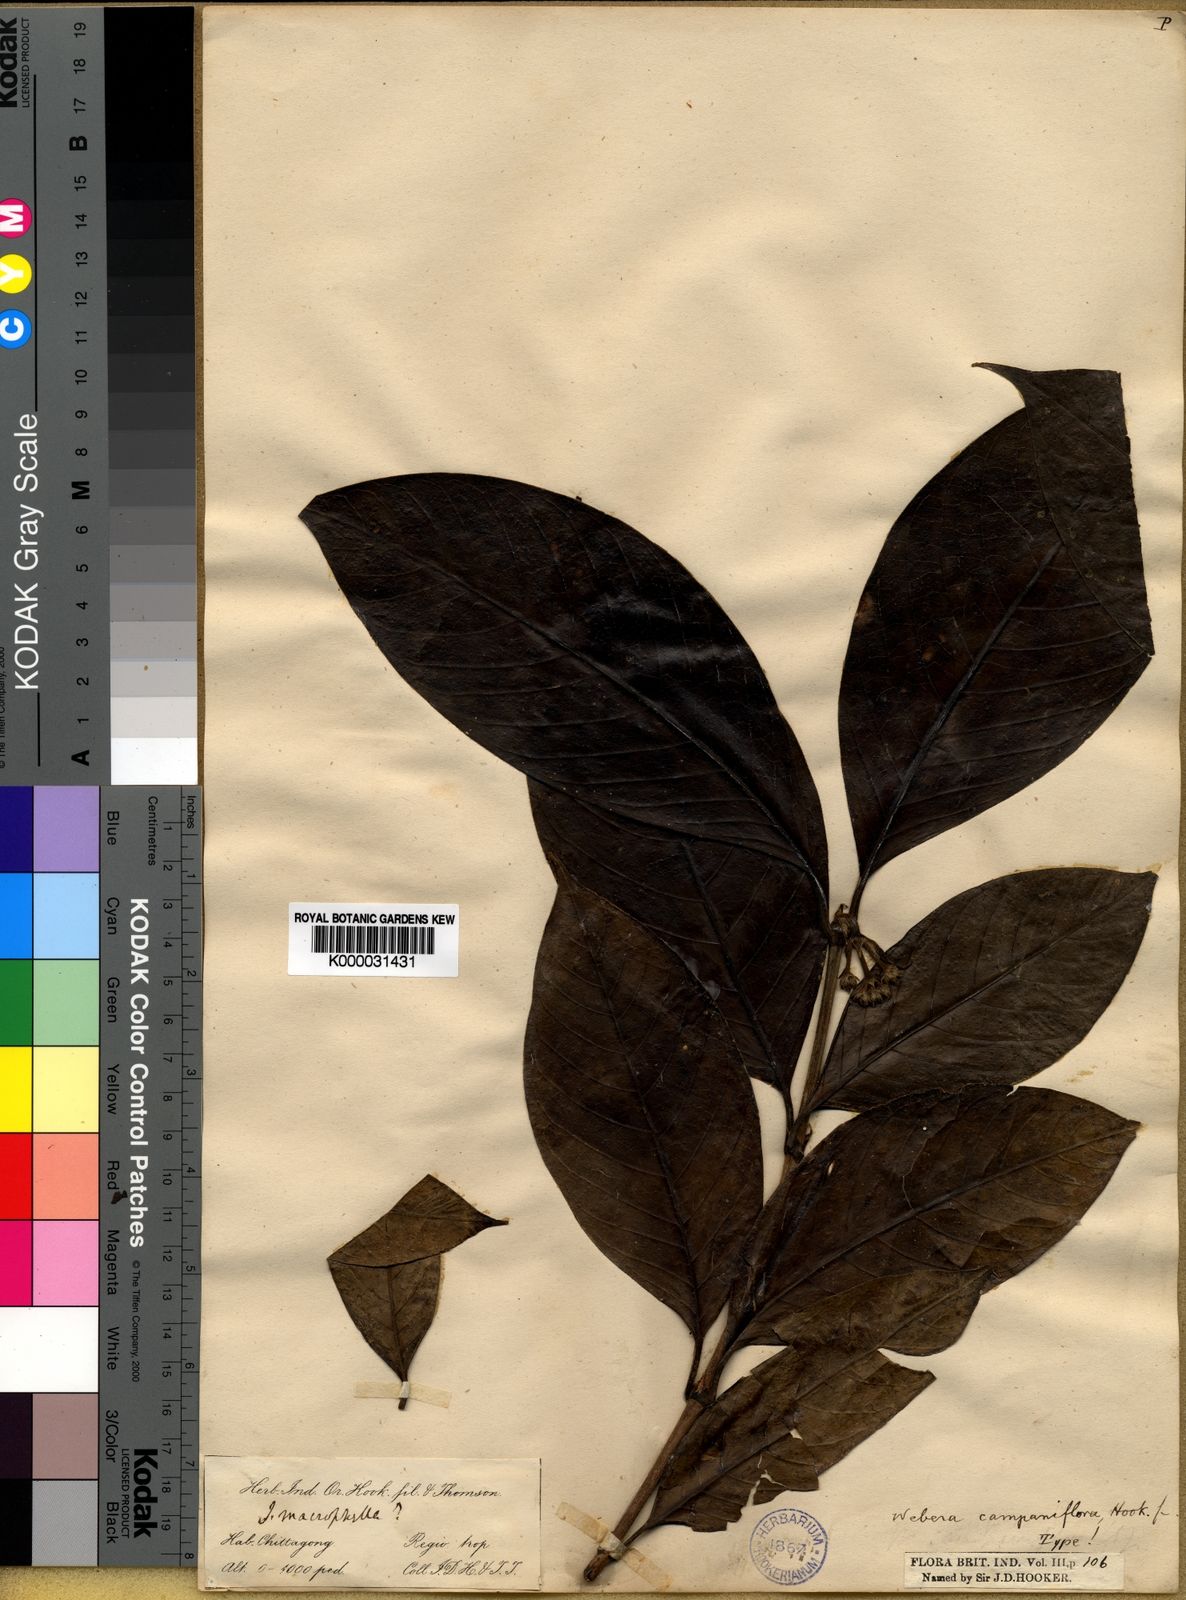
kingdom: Plantae
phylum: Tracheophyta
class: Magnoliopsida
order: Gentianales
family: Rubiaceae
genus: Tarenna
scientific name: Tarenna helferi
